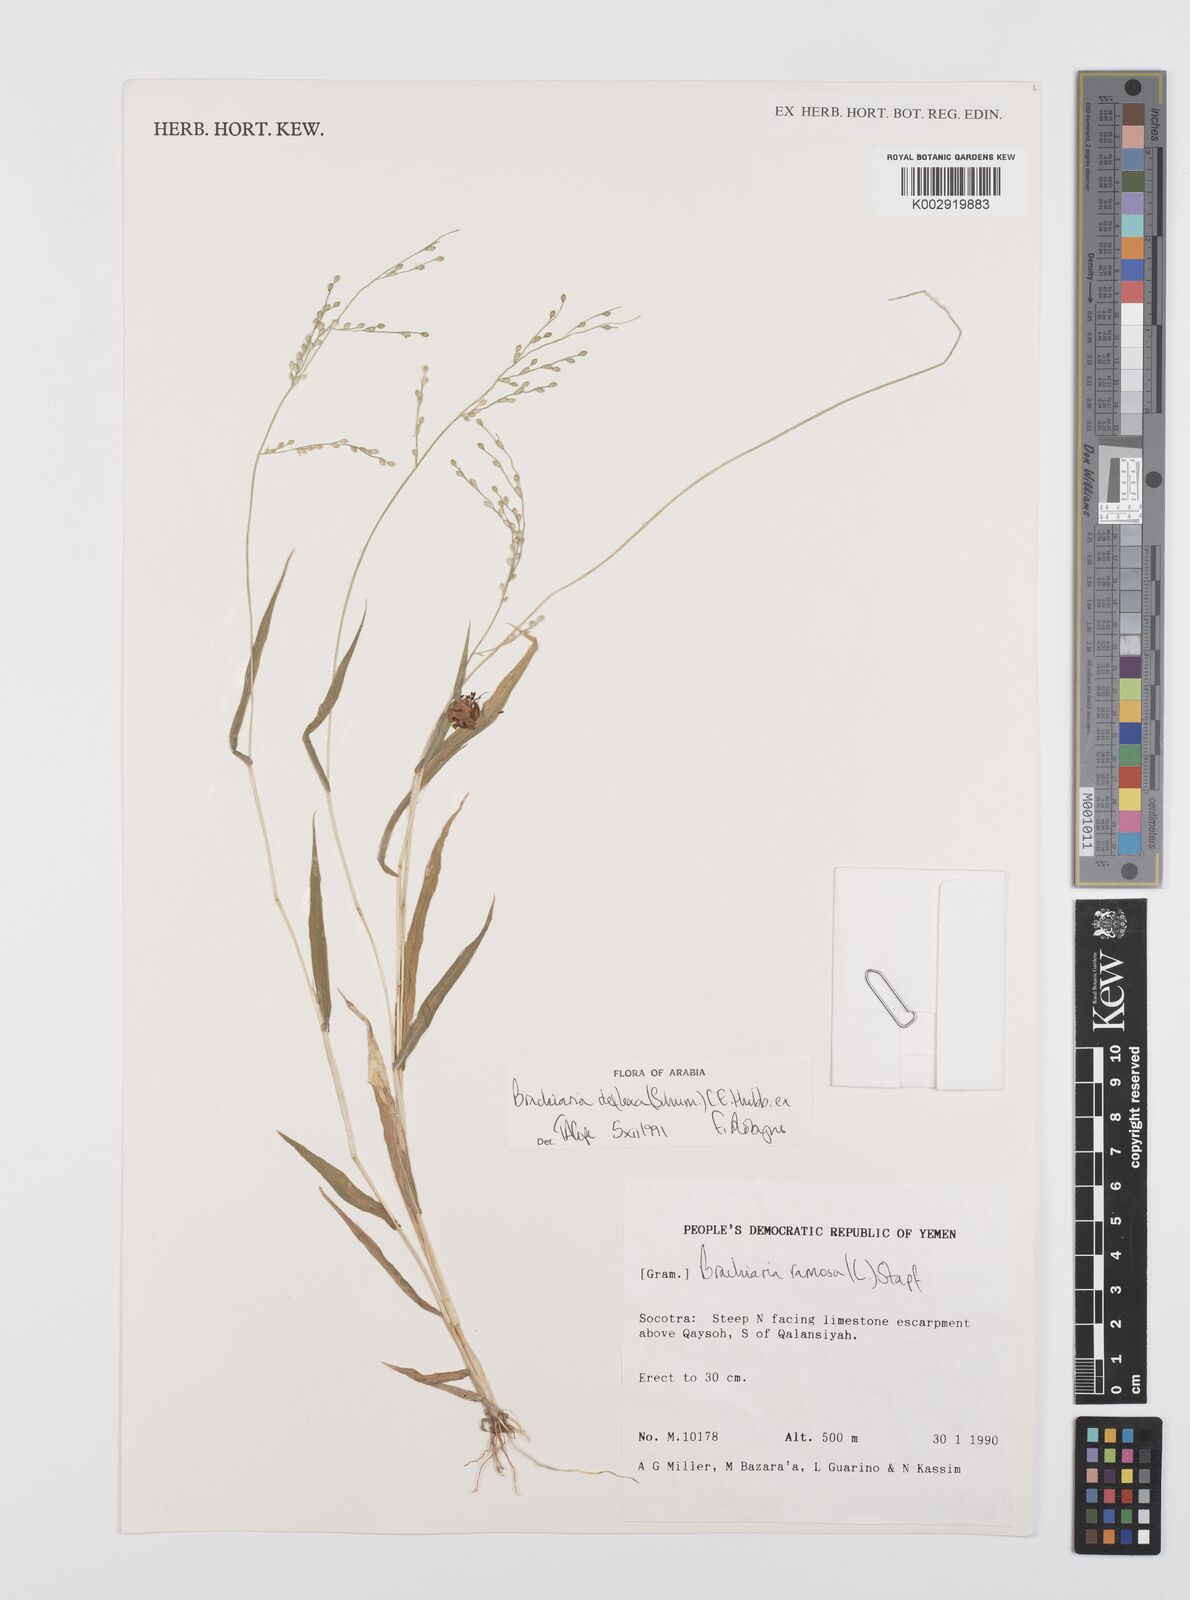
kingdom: Plantae
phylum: Tracheophyta
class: Liliopsida
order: Poales
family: Poaceae
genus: Urochloa
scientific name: Urochloa deflexa
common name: Guinea millet
